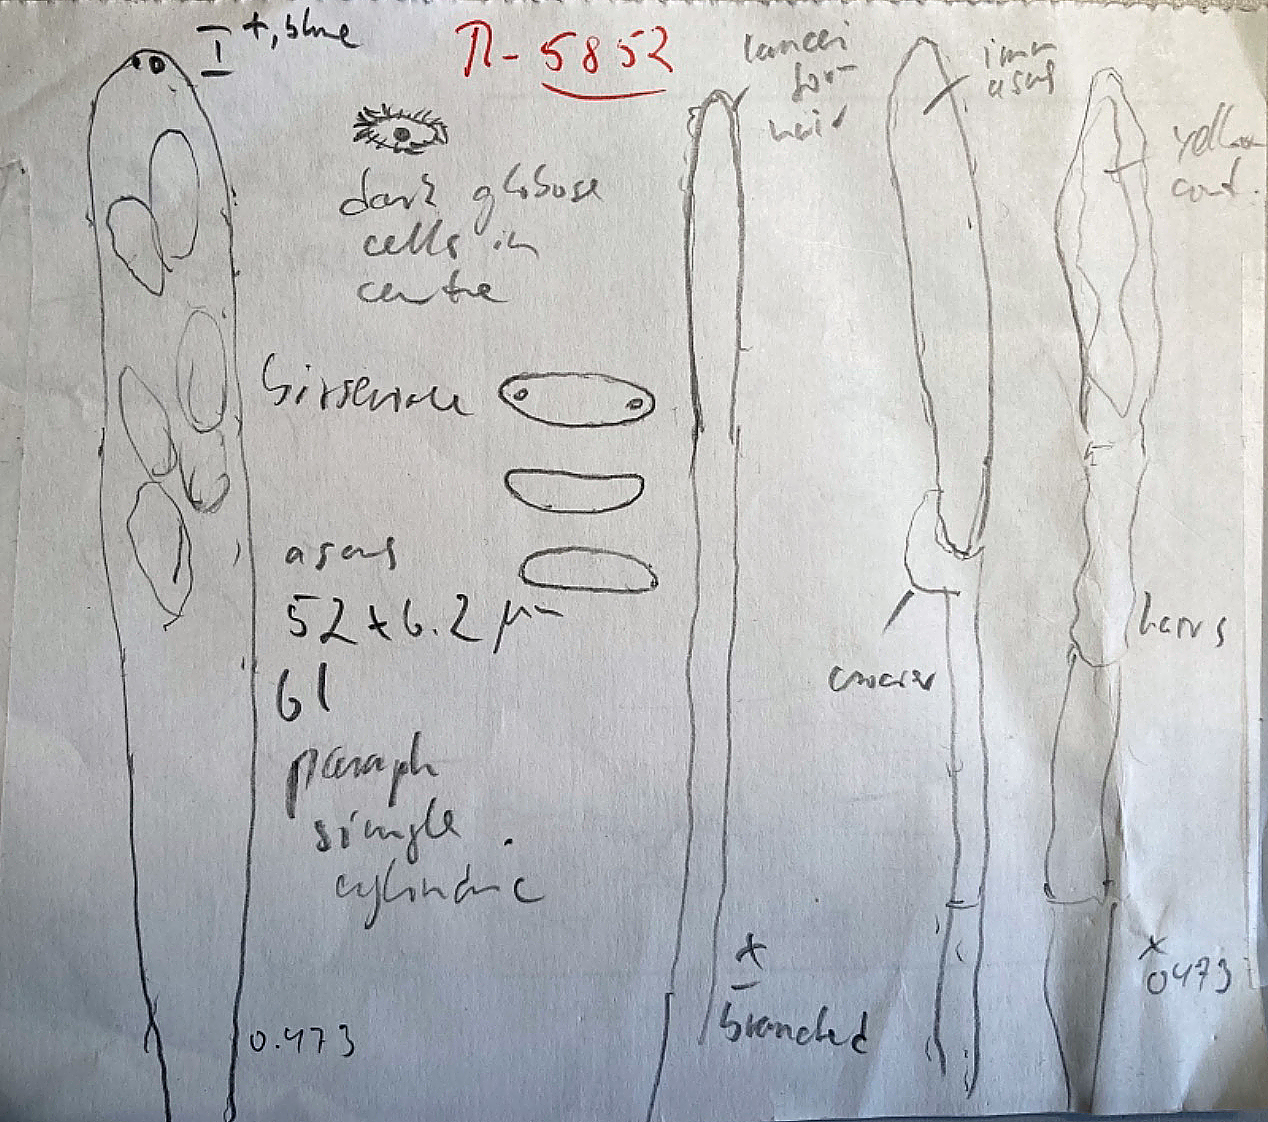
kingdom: Fungi
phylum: Ascomycota
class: Leotiomycetes
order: Helotiales
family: Dermateaceae
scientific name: Dermateaceae
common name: gråskivefamilien
